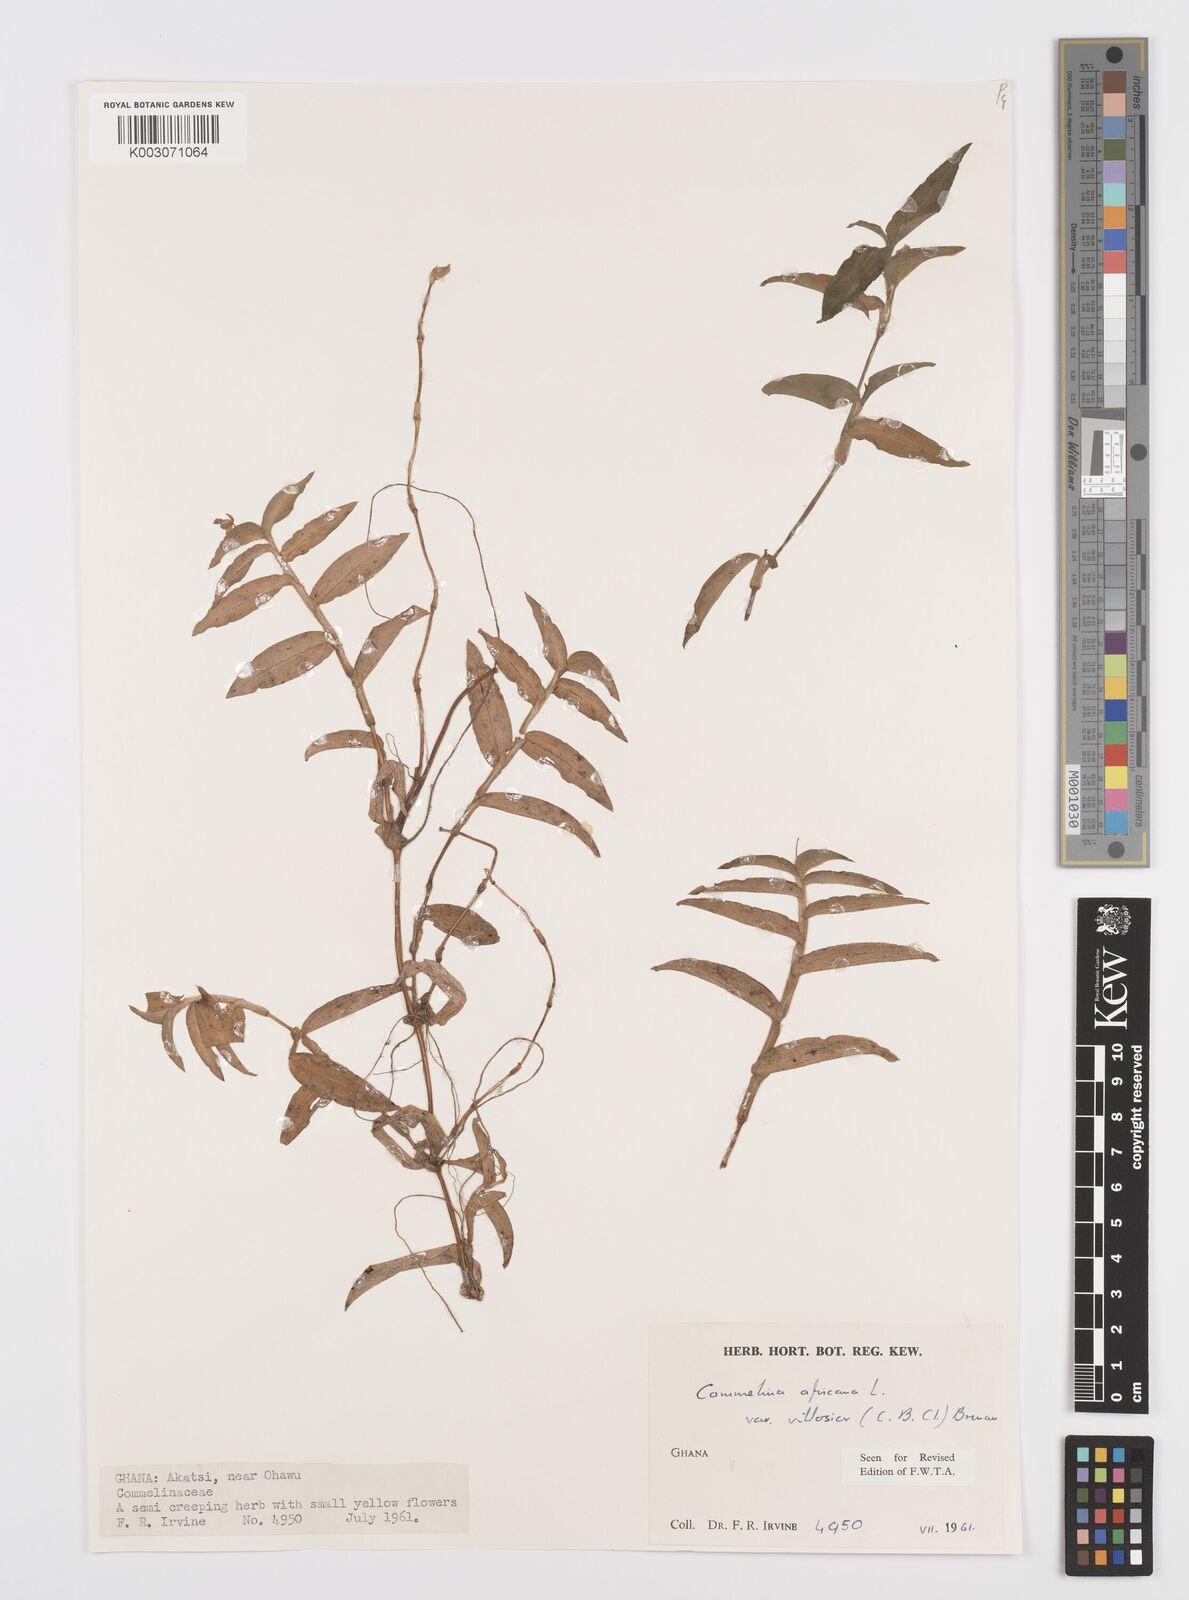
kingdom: Plantae
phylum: Tracheophyta
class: Liliopsida
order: Commelinales
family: Commelinaceae
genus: Commelina
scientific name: Commelina africana
